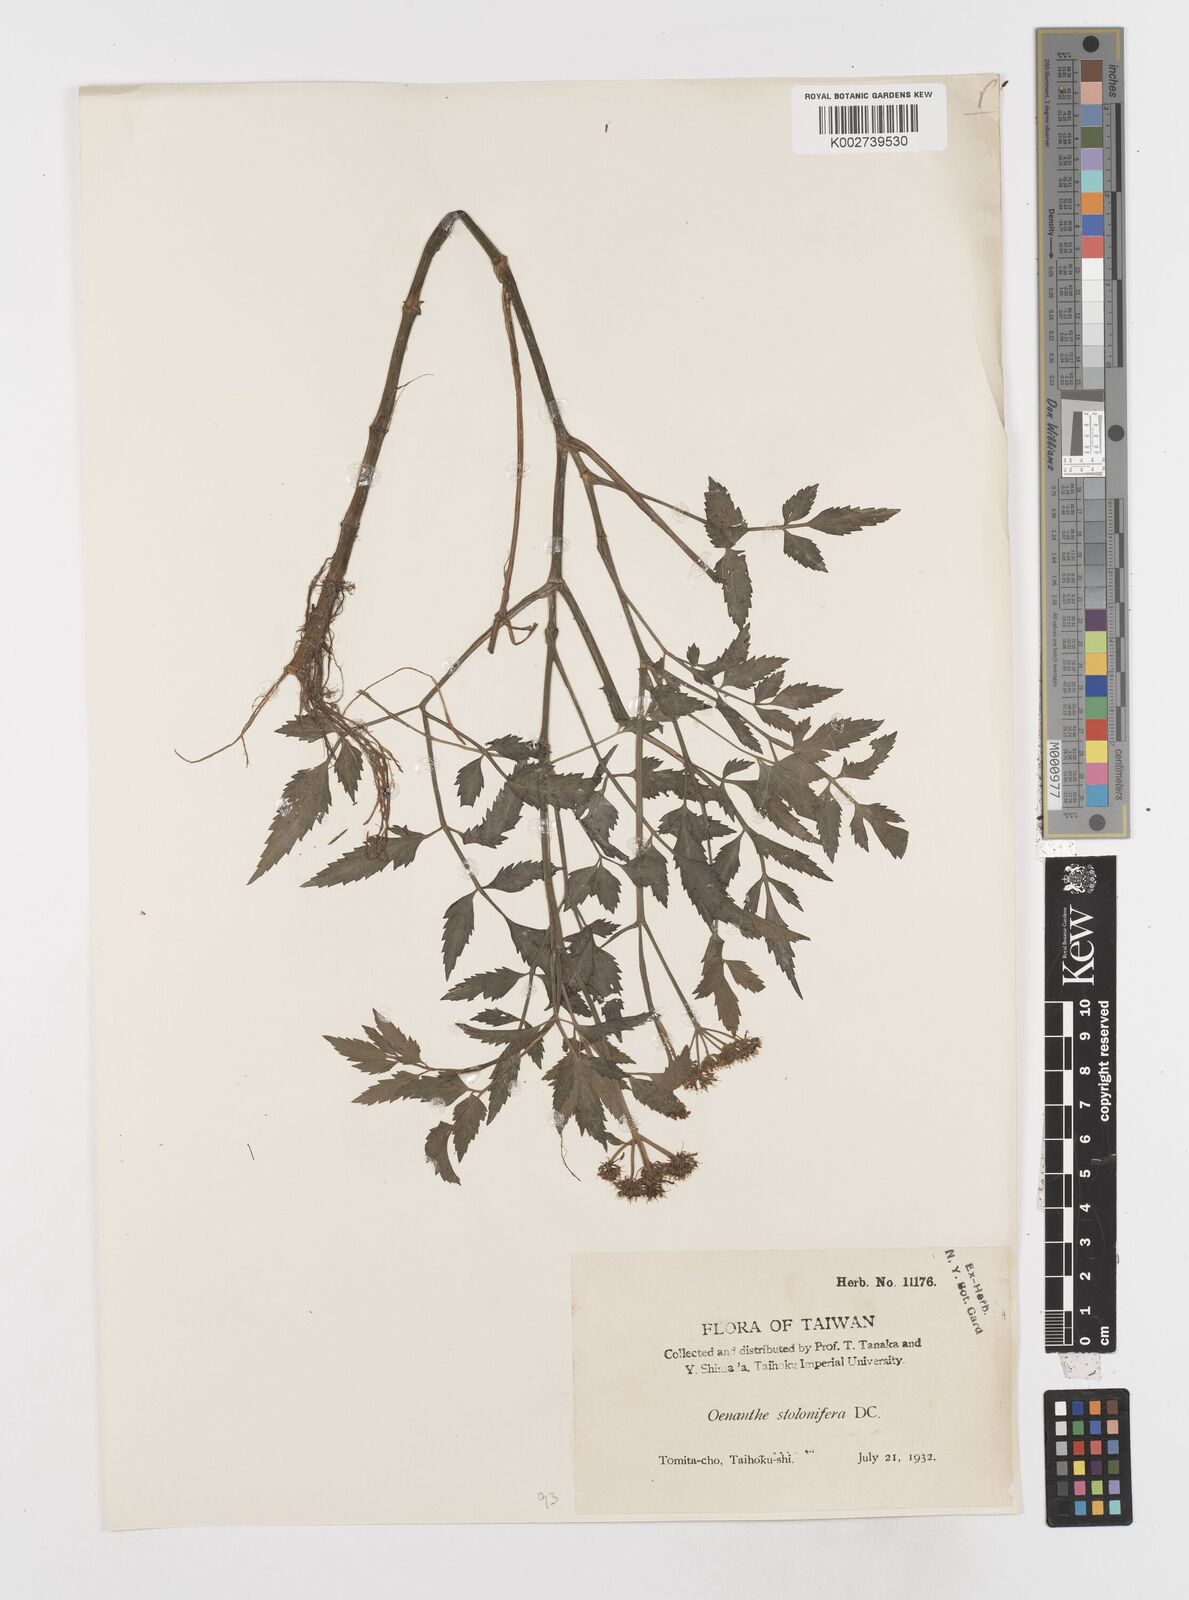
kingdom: Plantae
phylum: Tracheophyta
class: Magnoliopsida
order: Apiales
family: Apiaceae
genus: Oenanthe
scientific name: Oenanthe javanica
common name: Java water-dropwort
